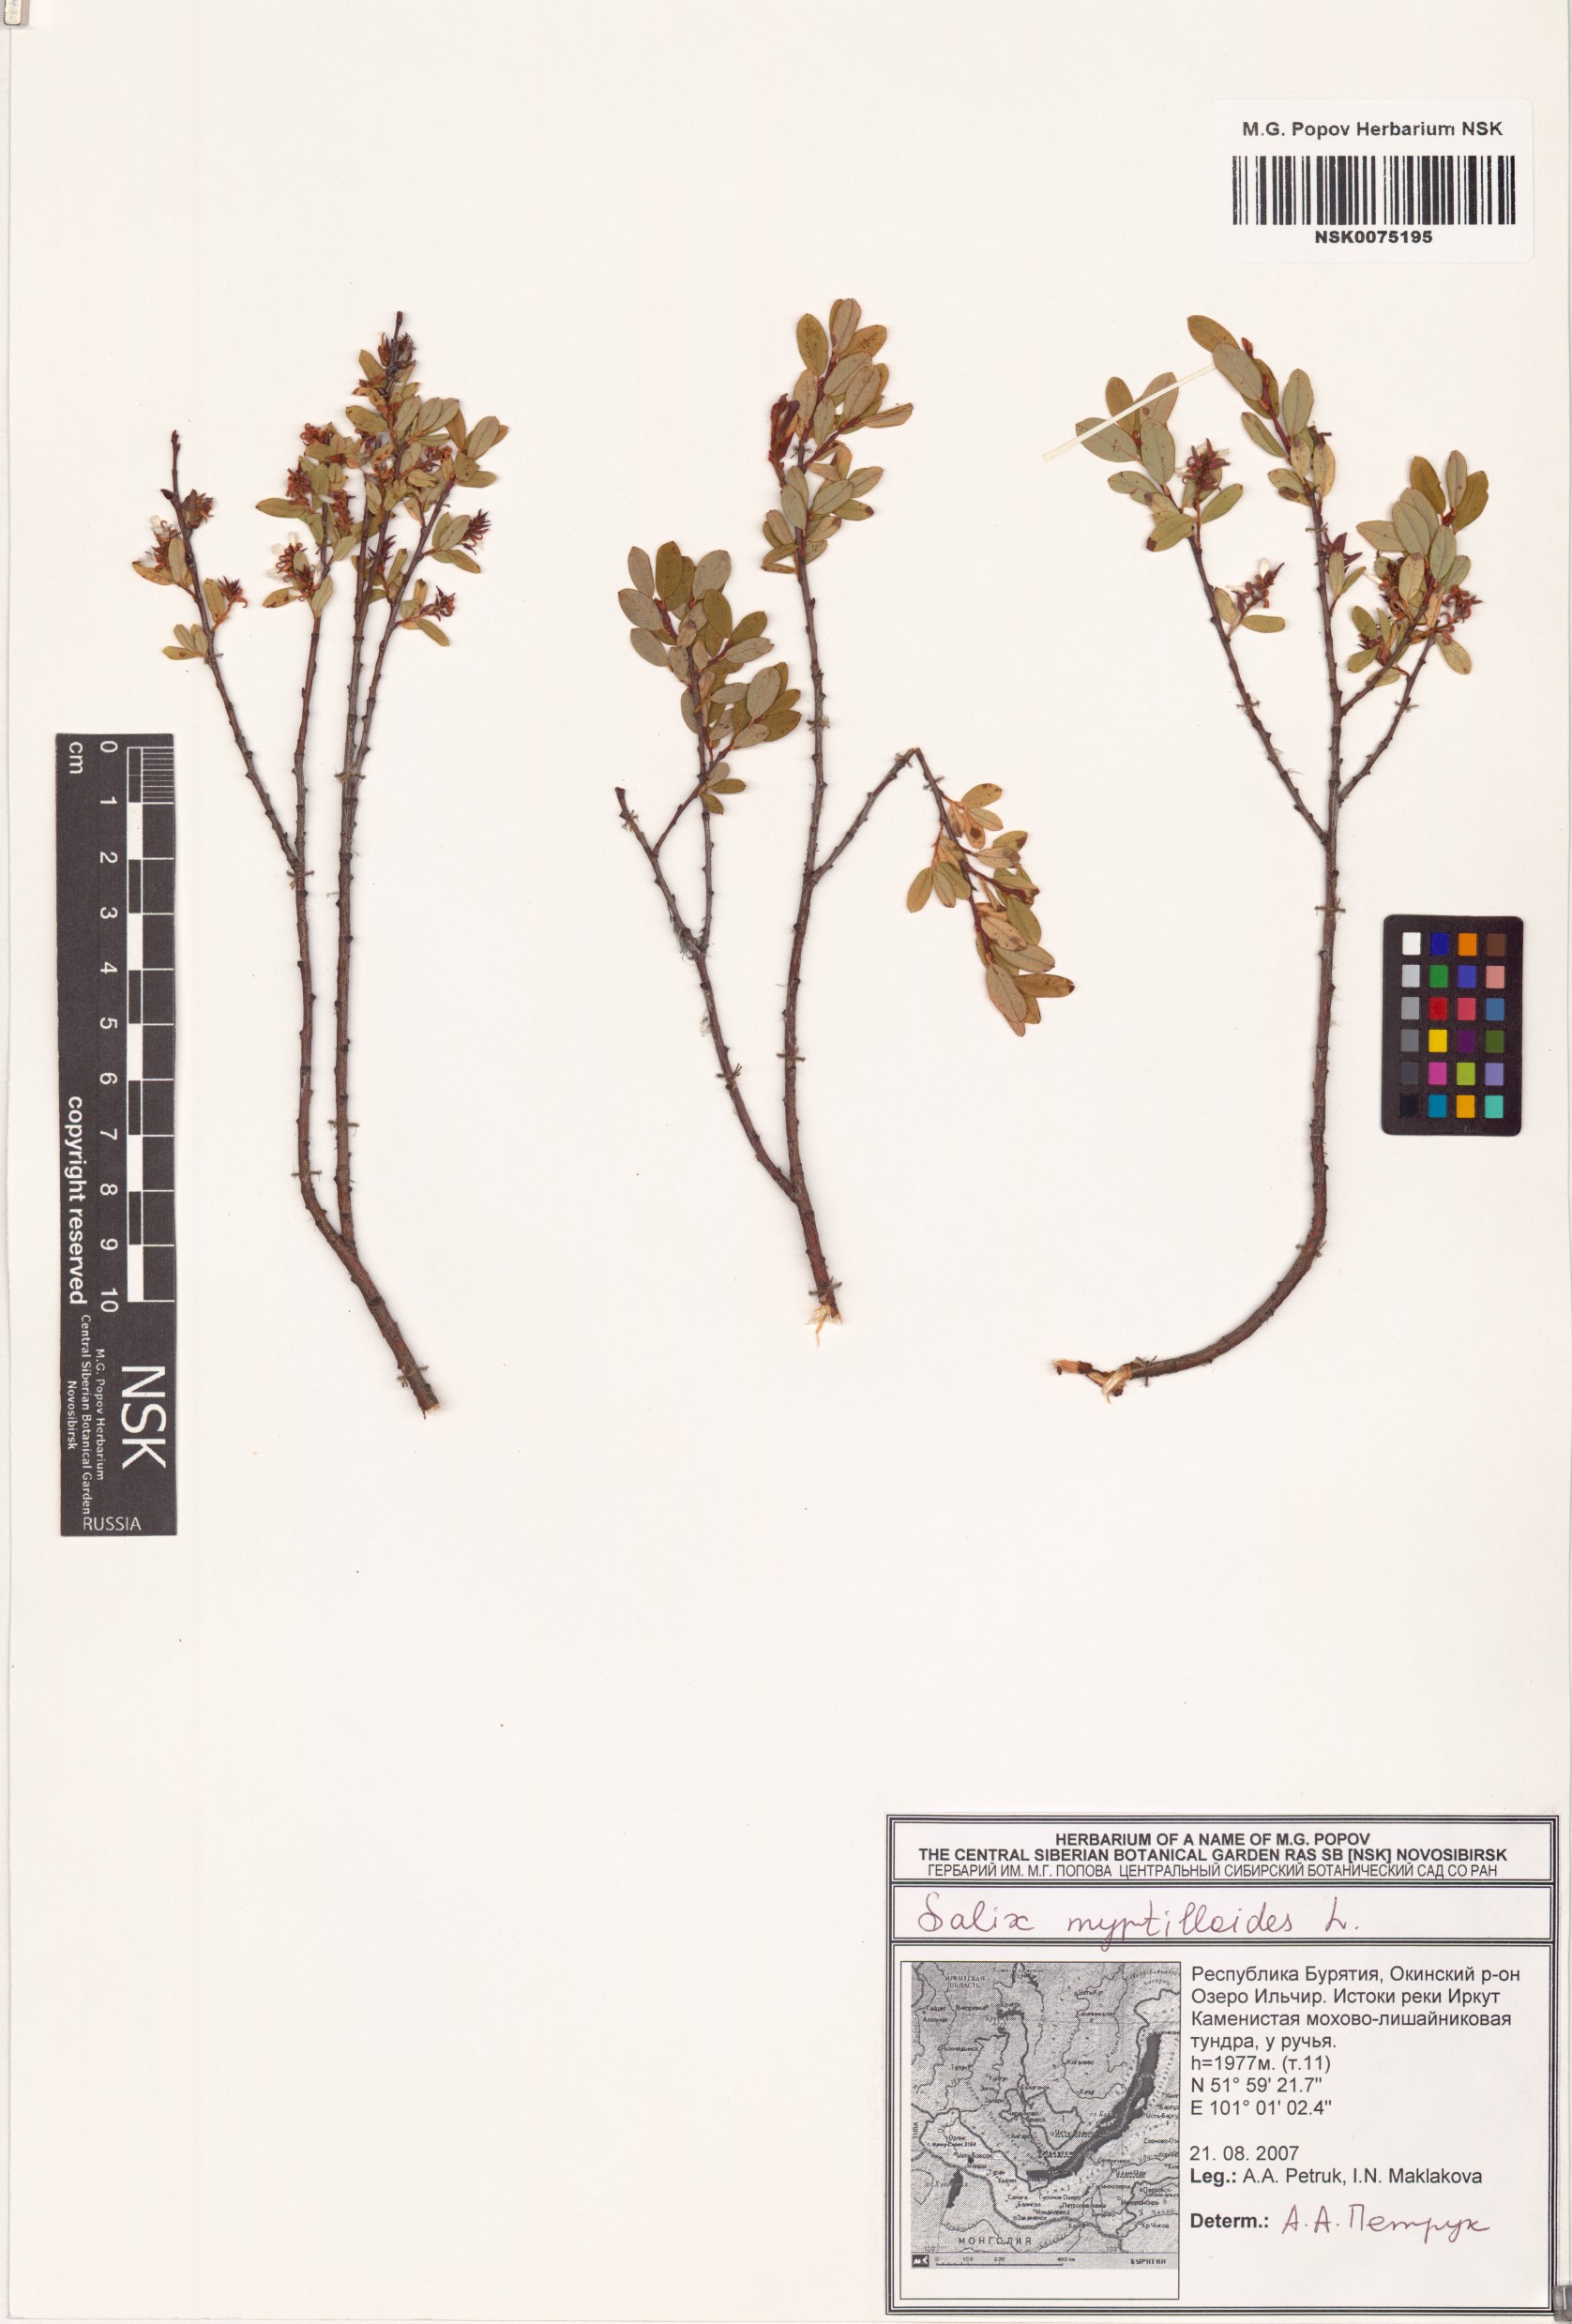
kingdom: Plantae
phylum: Tracheophyta
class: Magnoliopsida
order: Malpighiales
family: Salicaceae
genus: Salix
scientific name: Salix myrtilloides
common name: Myrtle-leaved willow
